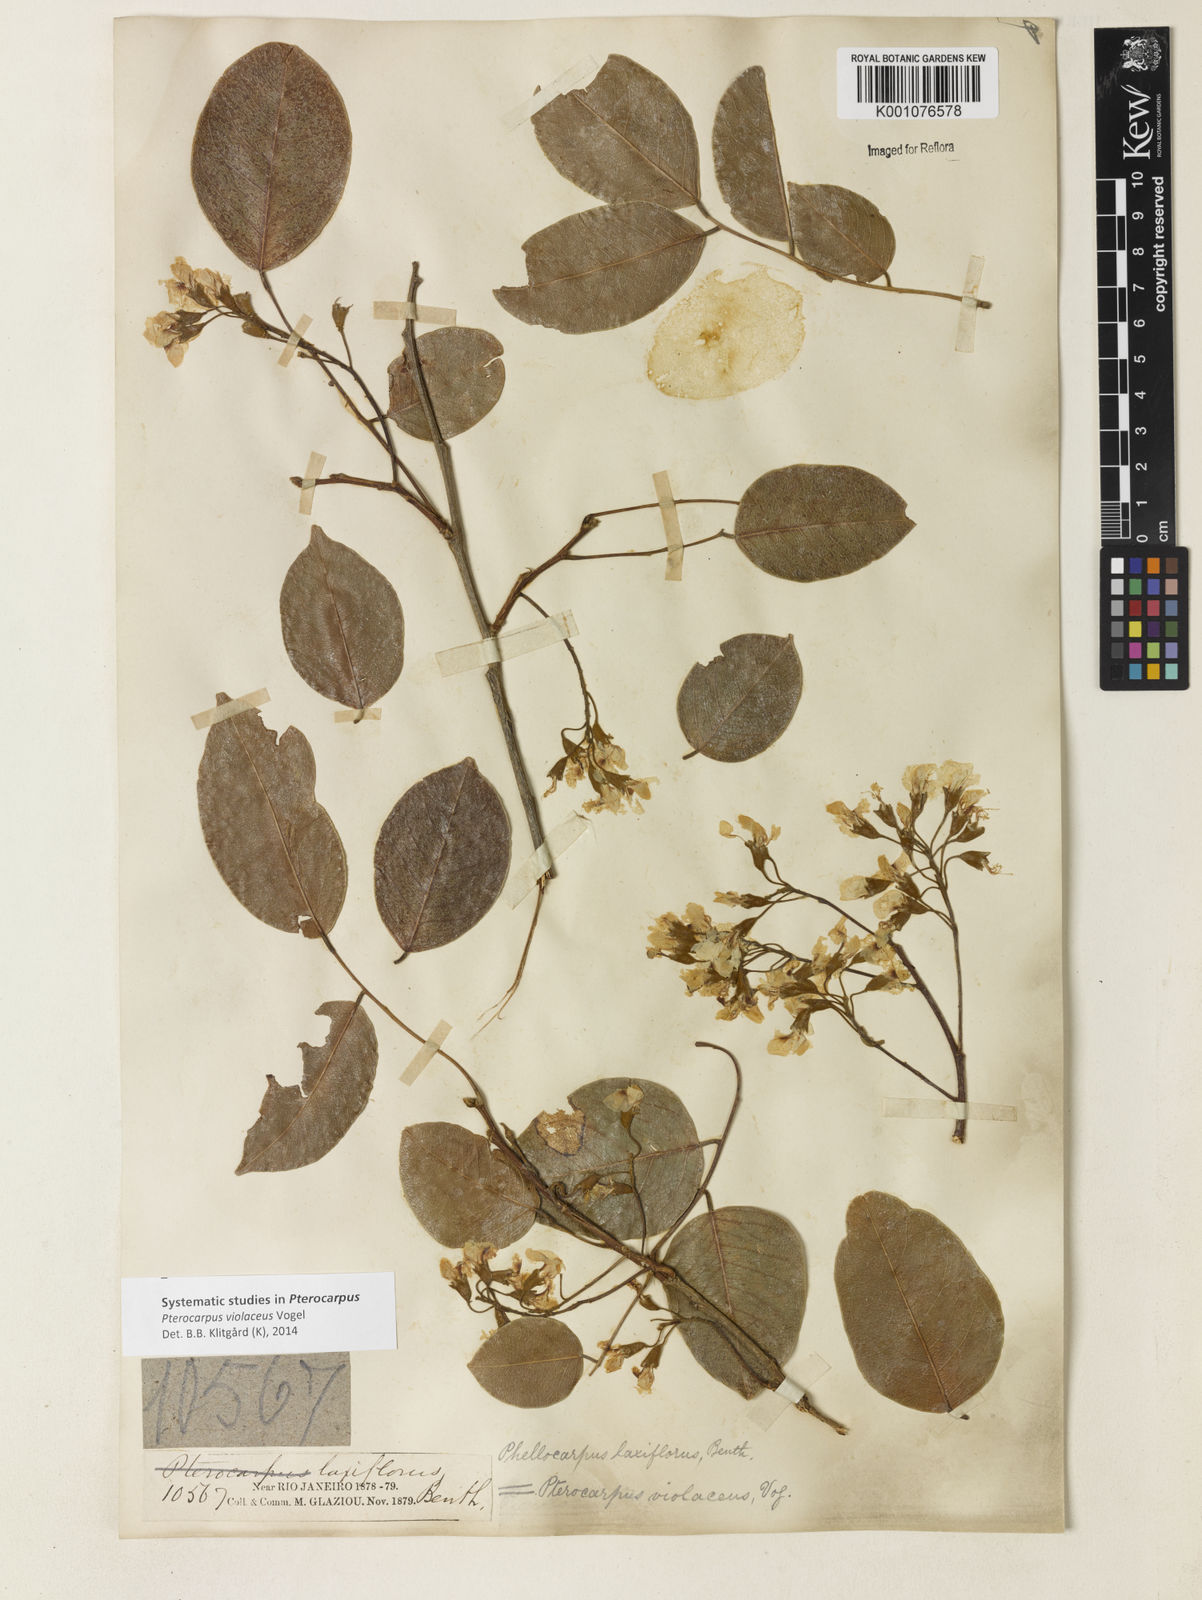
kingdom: Plantae
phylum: Tracheophyta
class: Magnoliopsida
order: Fabales
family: Fabaceae
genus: Pterocarpus
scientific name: Pterocarpus rohrii
